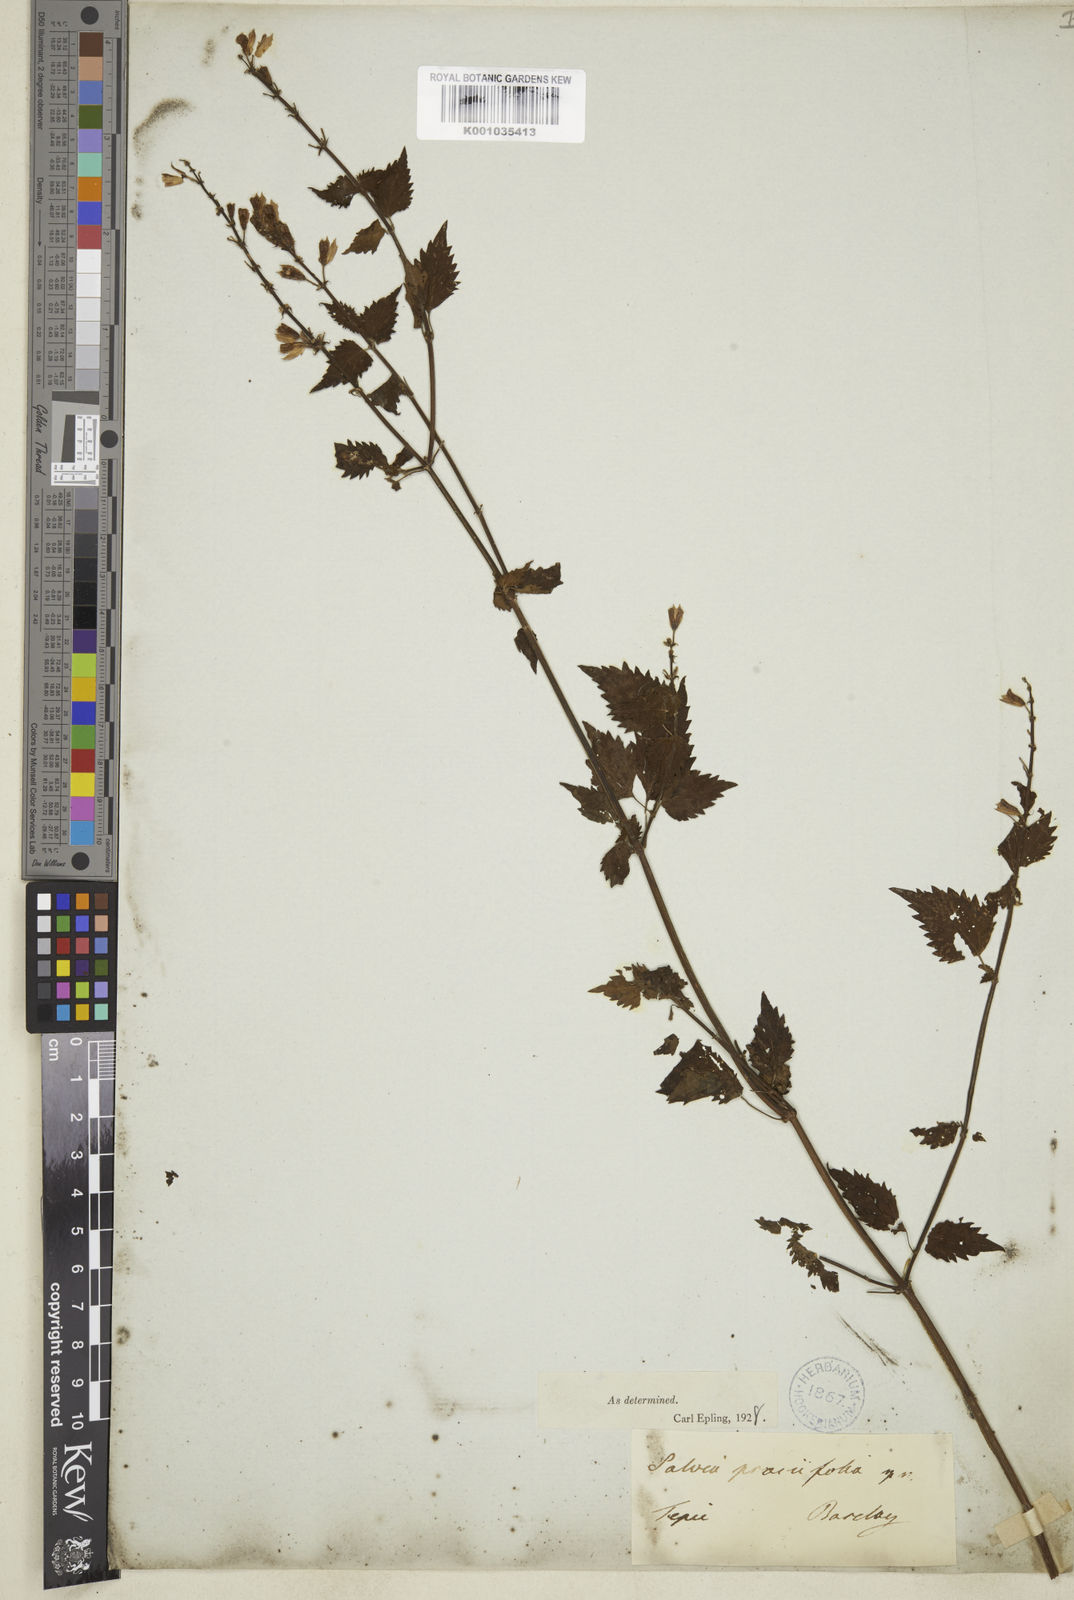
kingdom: Plantae
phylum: Tracheophyta
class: Magnoliopsida
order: Lamiales
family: Lamiaceae
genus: Salvia
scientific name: Salvia prasiifolia
